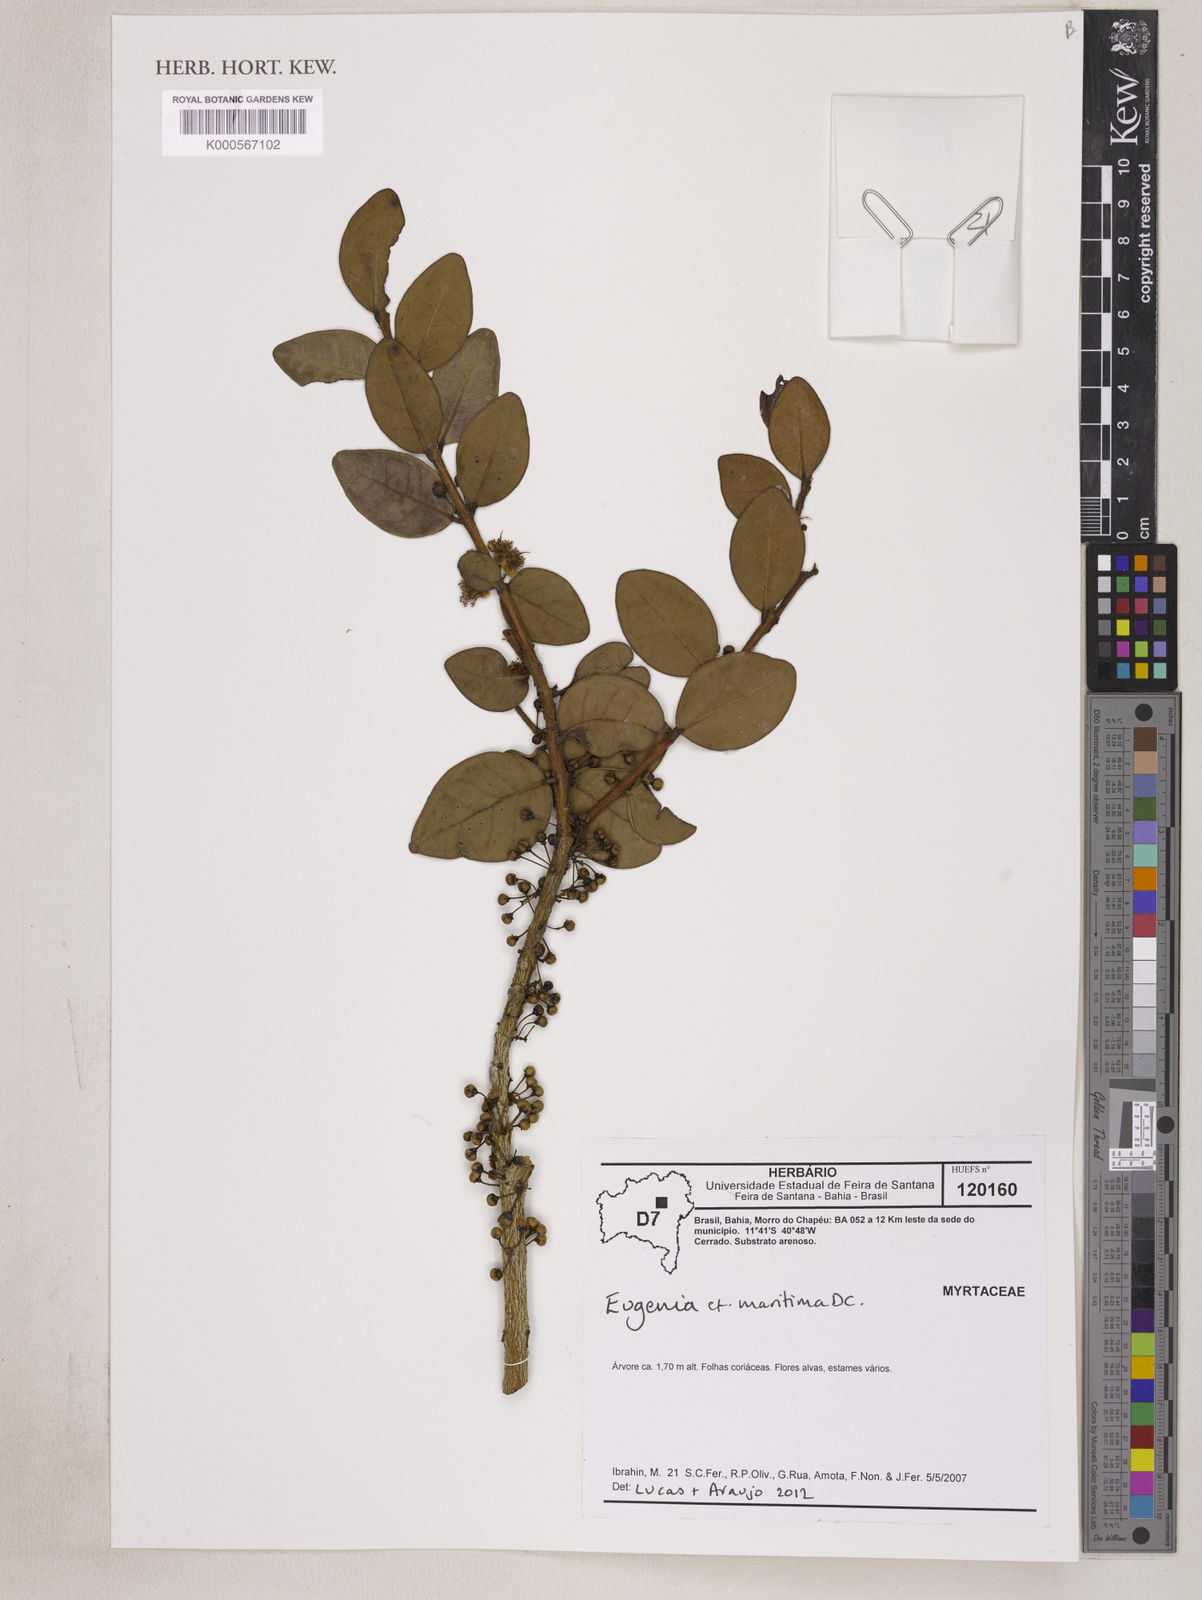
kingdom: Plantae
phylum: Tracheophyta
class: Magnoliopsida
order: Myrtales
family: Myrtaceae
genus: Eugenia
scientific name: Eugenia maritima
